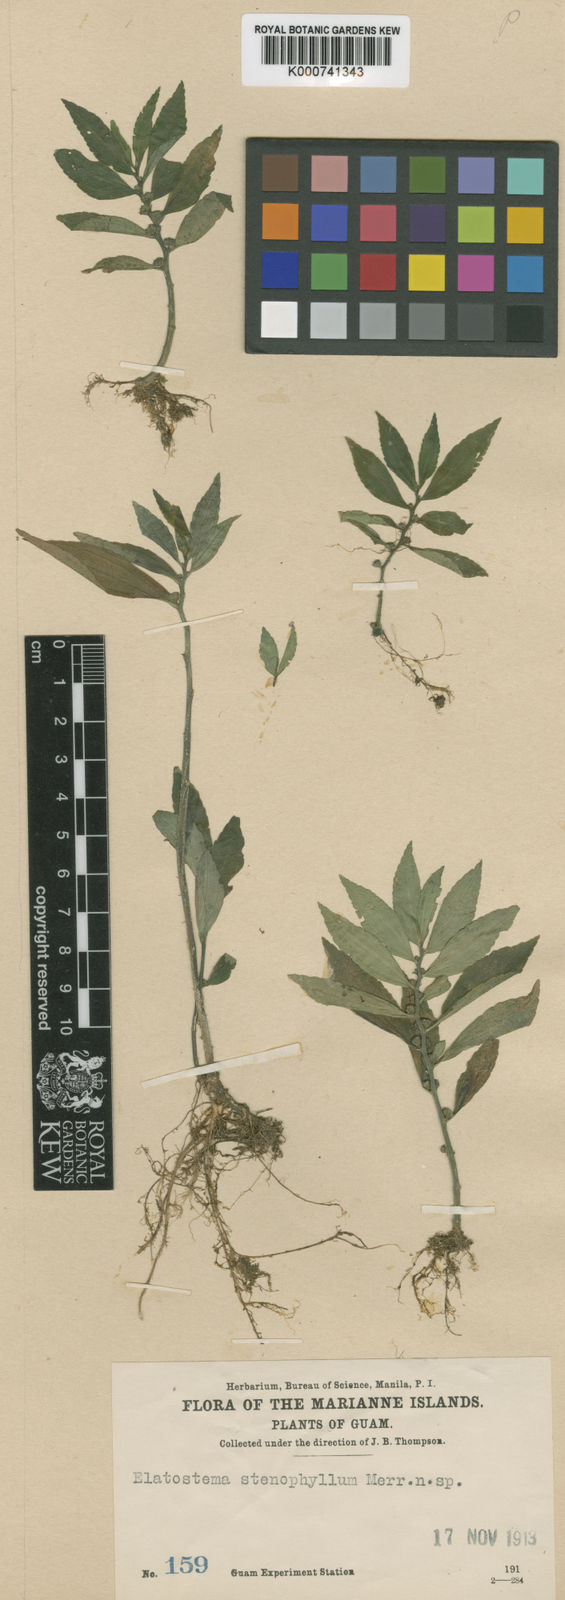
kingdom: Plantae
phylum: Tracheophyta
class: Magnoliopsida
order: Rosales
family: Urticaceae
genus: Elatostema
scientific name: Elatostema stenophyllum
